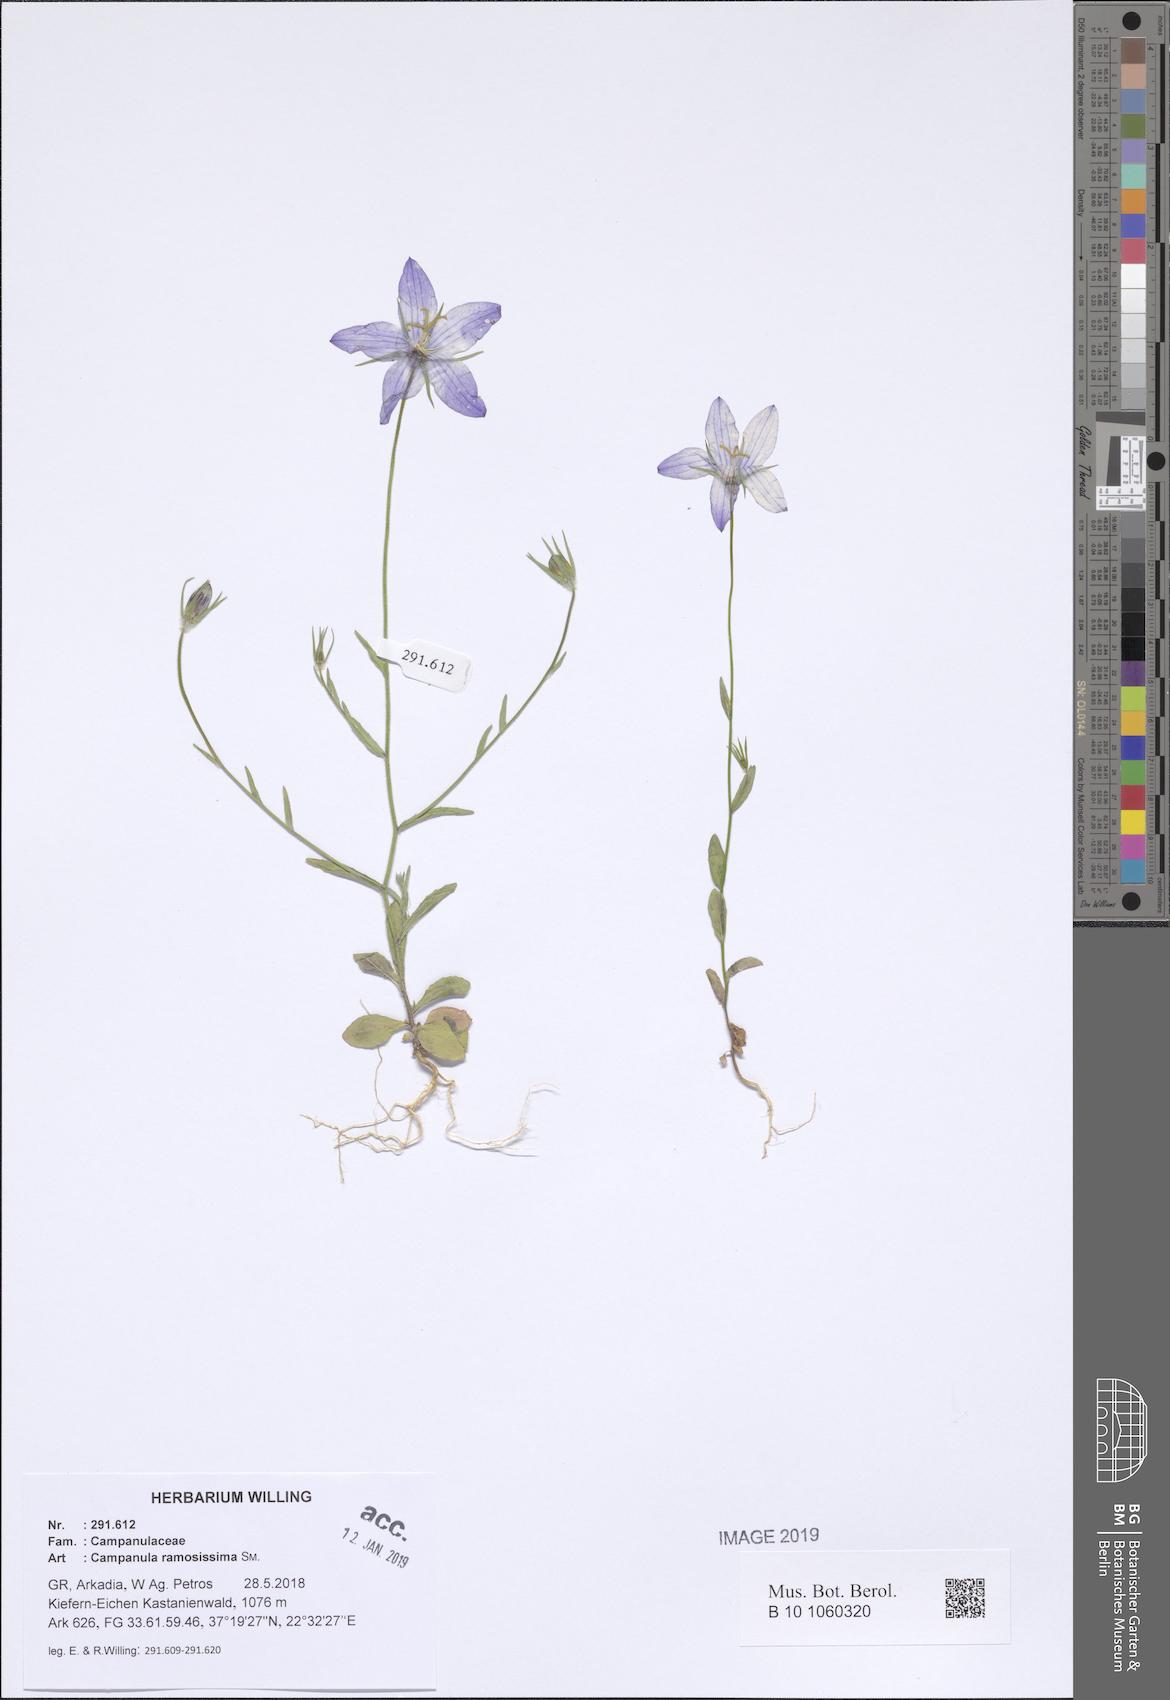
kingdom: Plantae
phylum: Tracheophyta
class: Magnoliopsida
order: Asterales
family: Campanulaceae
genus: Campanula
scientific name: Campanula ramosissima
